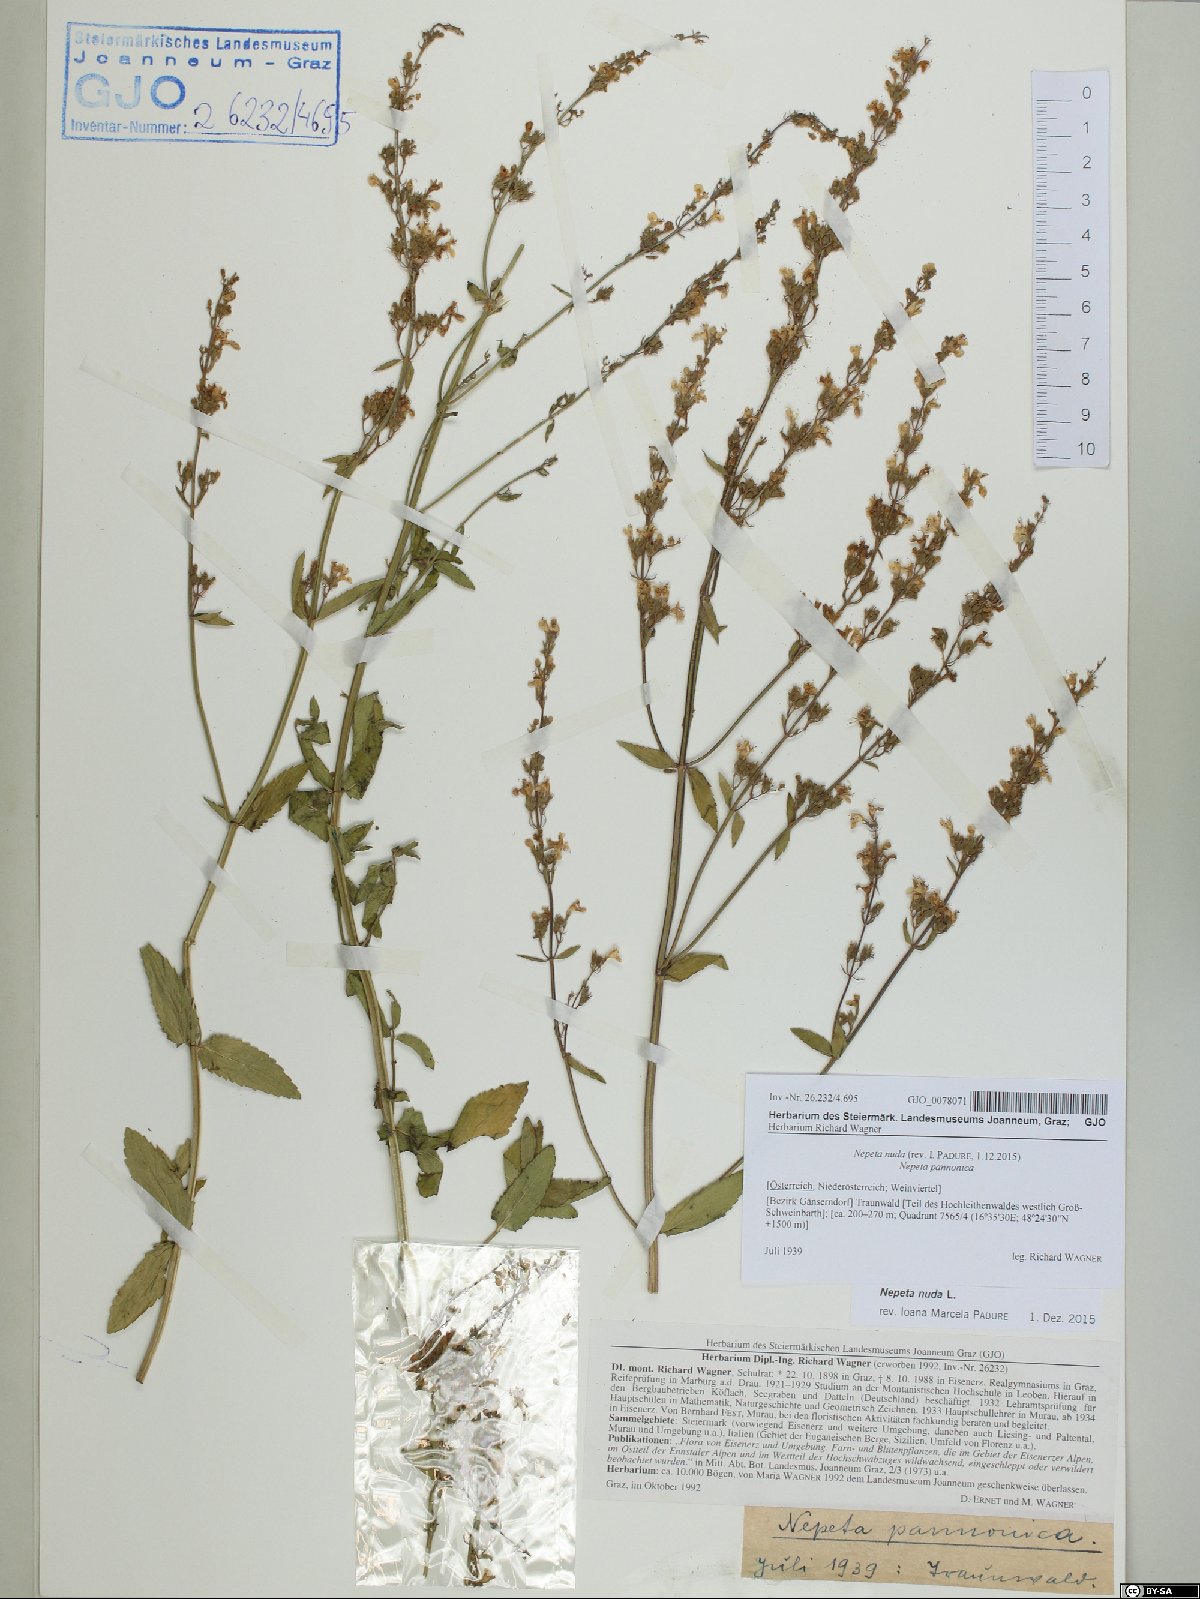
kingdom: Plantae
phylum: Tracheophyta
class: Magnoliopsida
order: Lamiales
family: Lamiaceae
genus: Nepeta
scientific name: Nepeta nuda
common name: Hairless catmint
